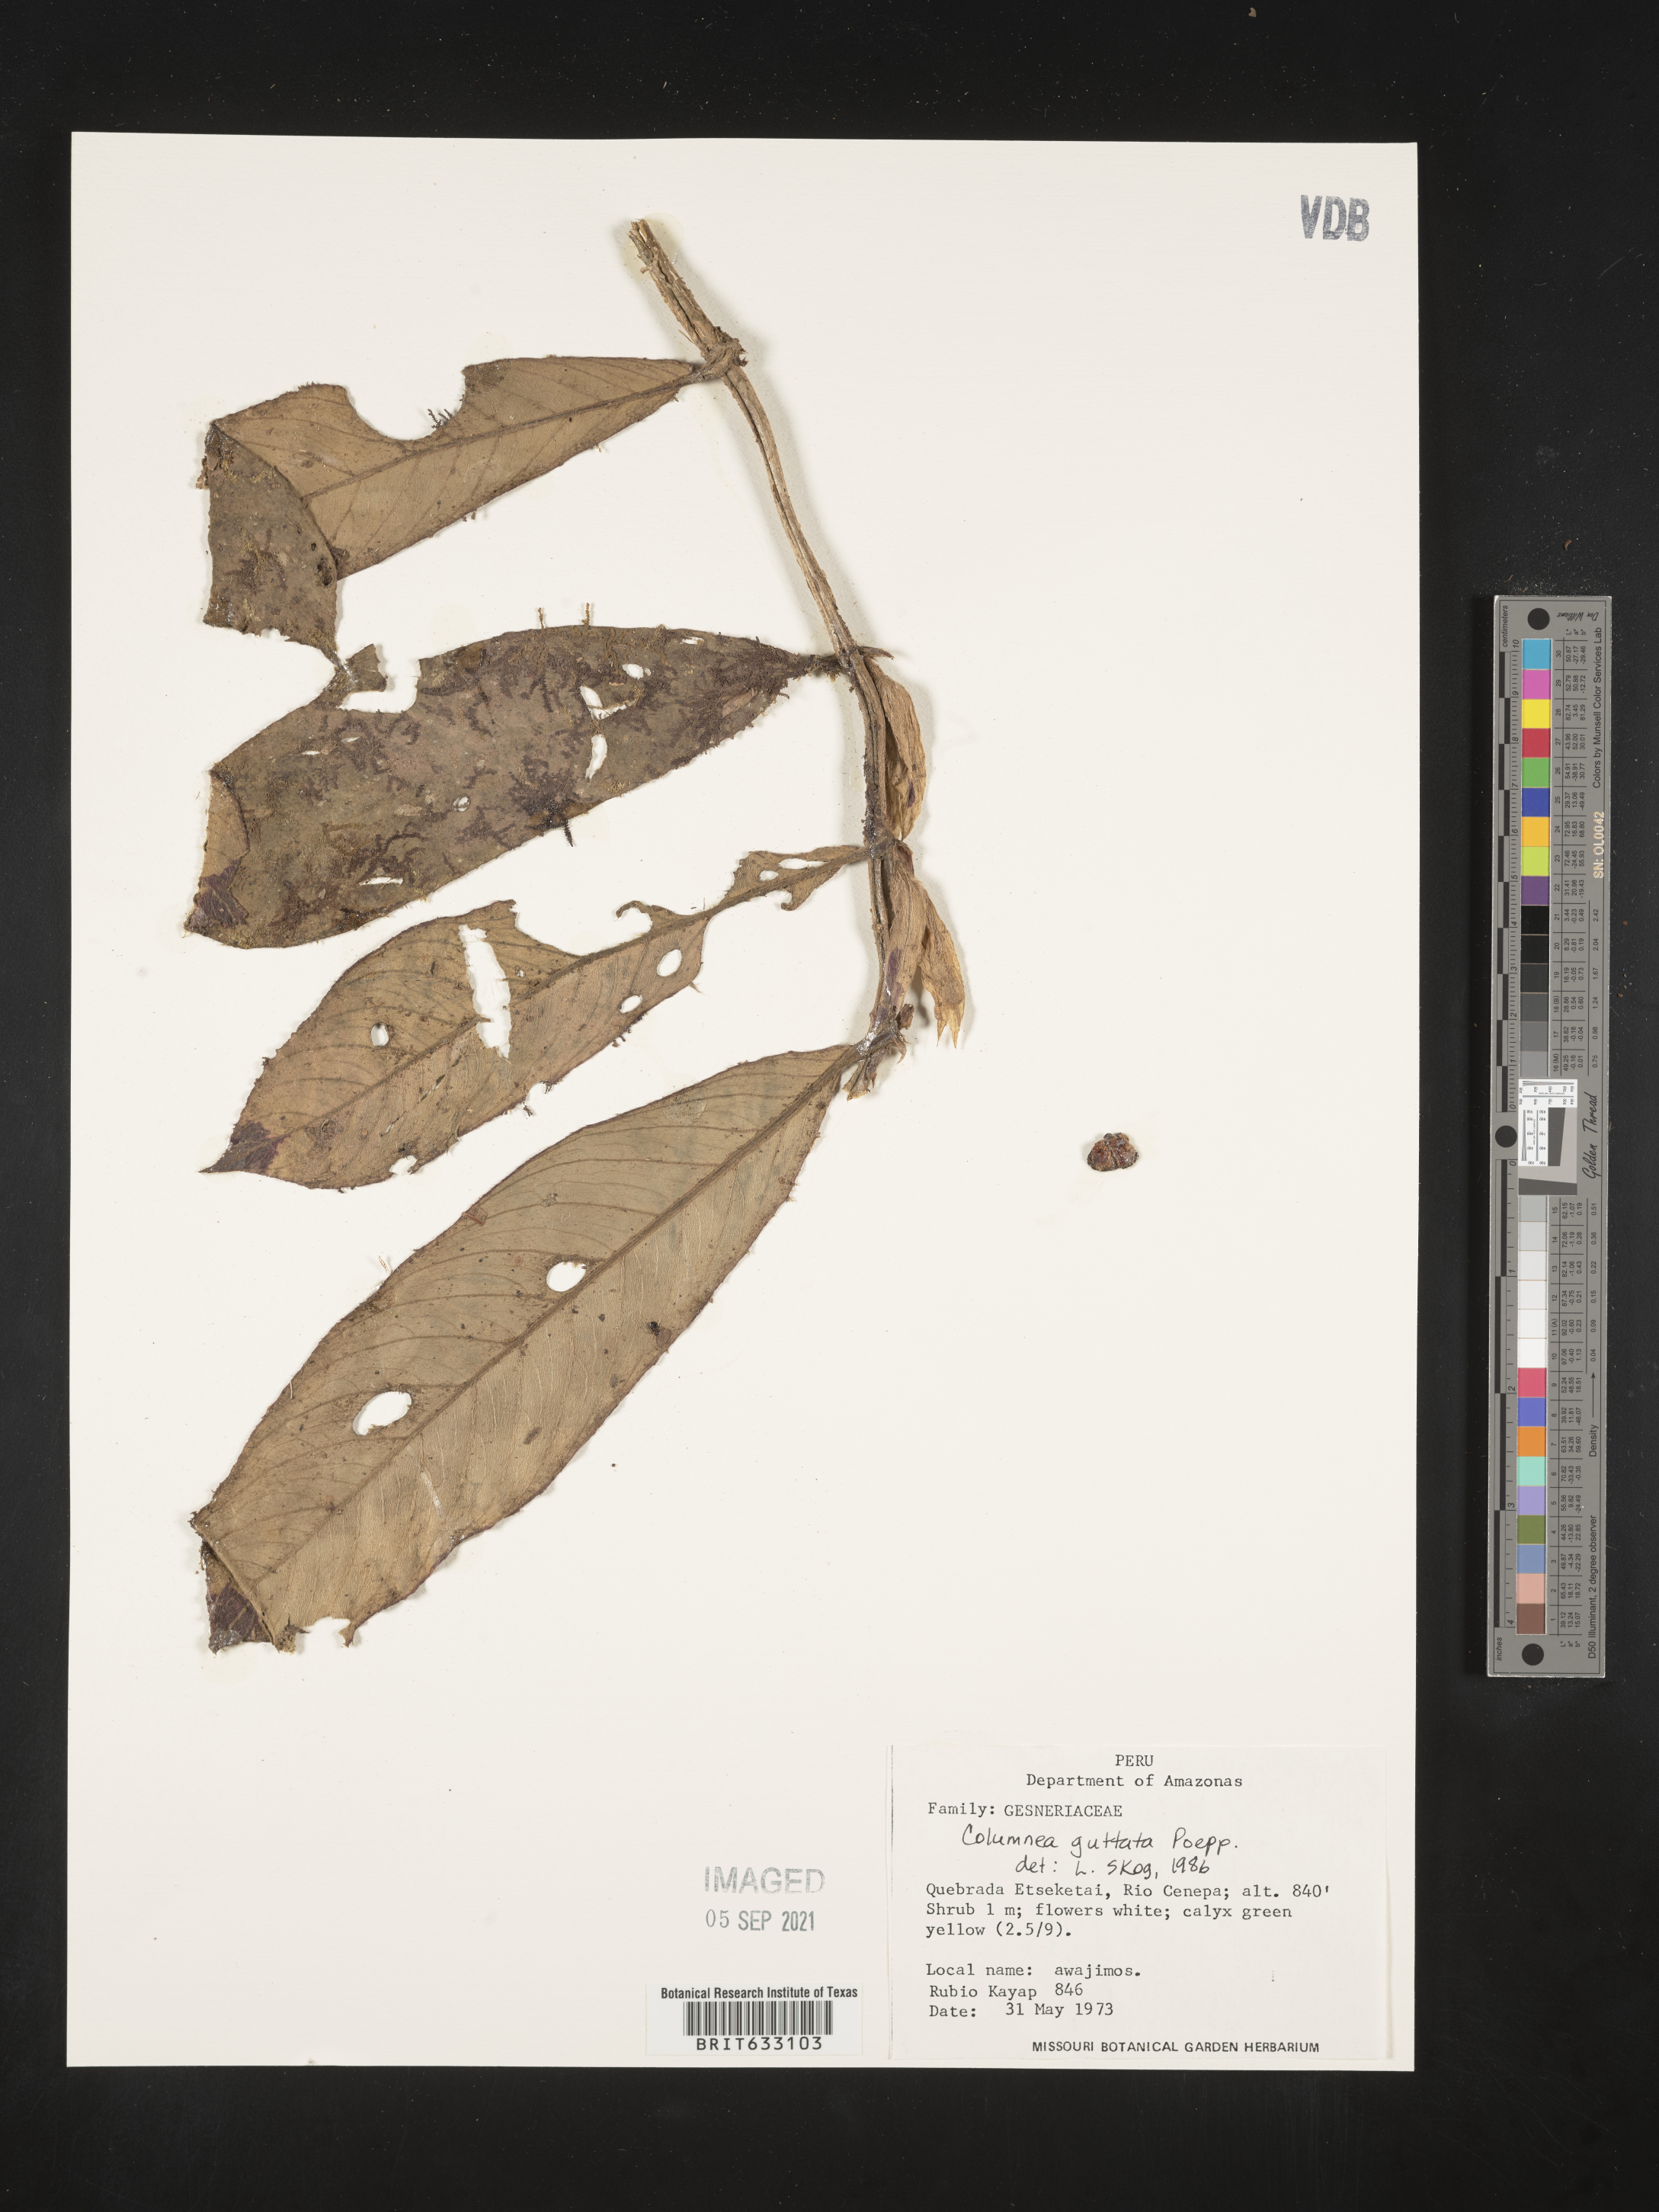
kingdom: Plantae
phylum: Tracheophyta
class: Magnoliopsida
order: Lamiales
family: Gesneriaceae
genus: Columnea
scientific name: Columnea
